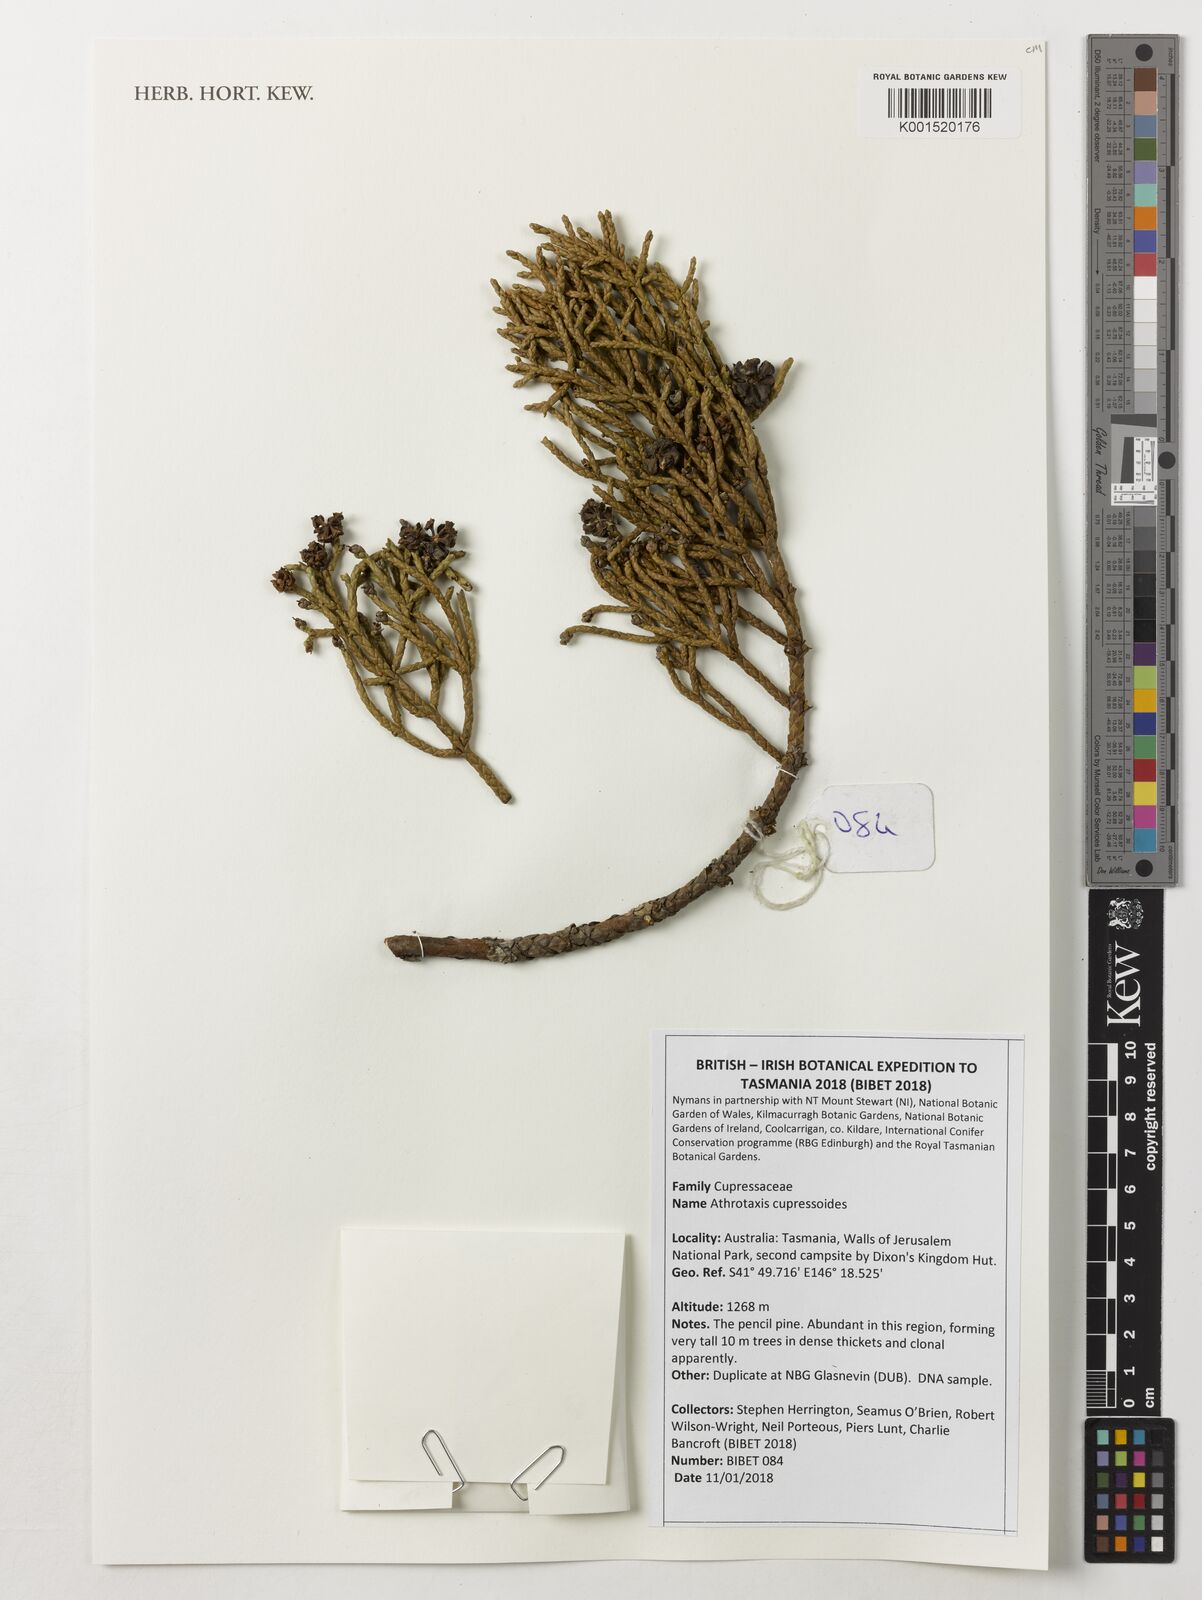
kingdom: Plantae
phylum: Tracheophyta
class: Pinopsida
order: Pinales
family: Cupressaceae
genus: Athrotaxis
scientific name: Athrotaxis cupressoides
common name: Tasmanian pencil pine
